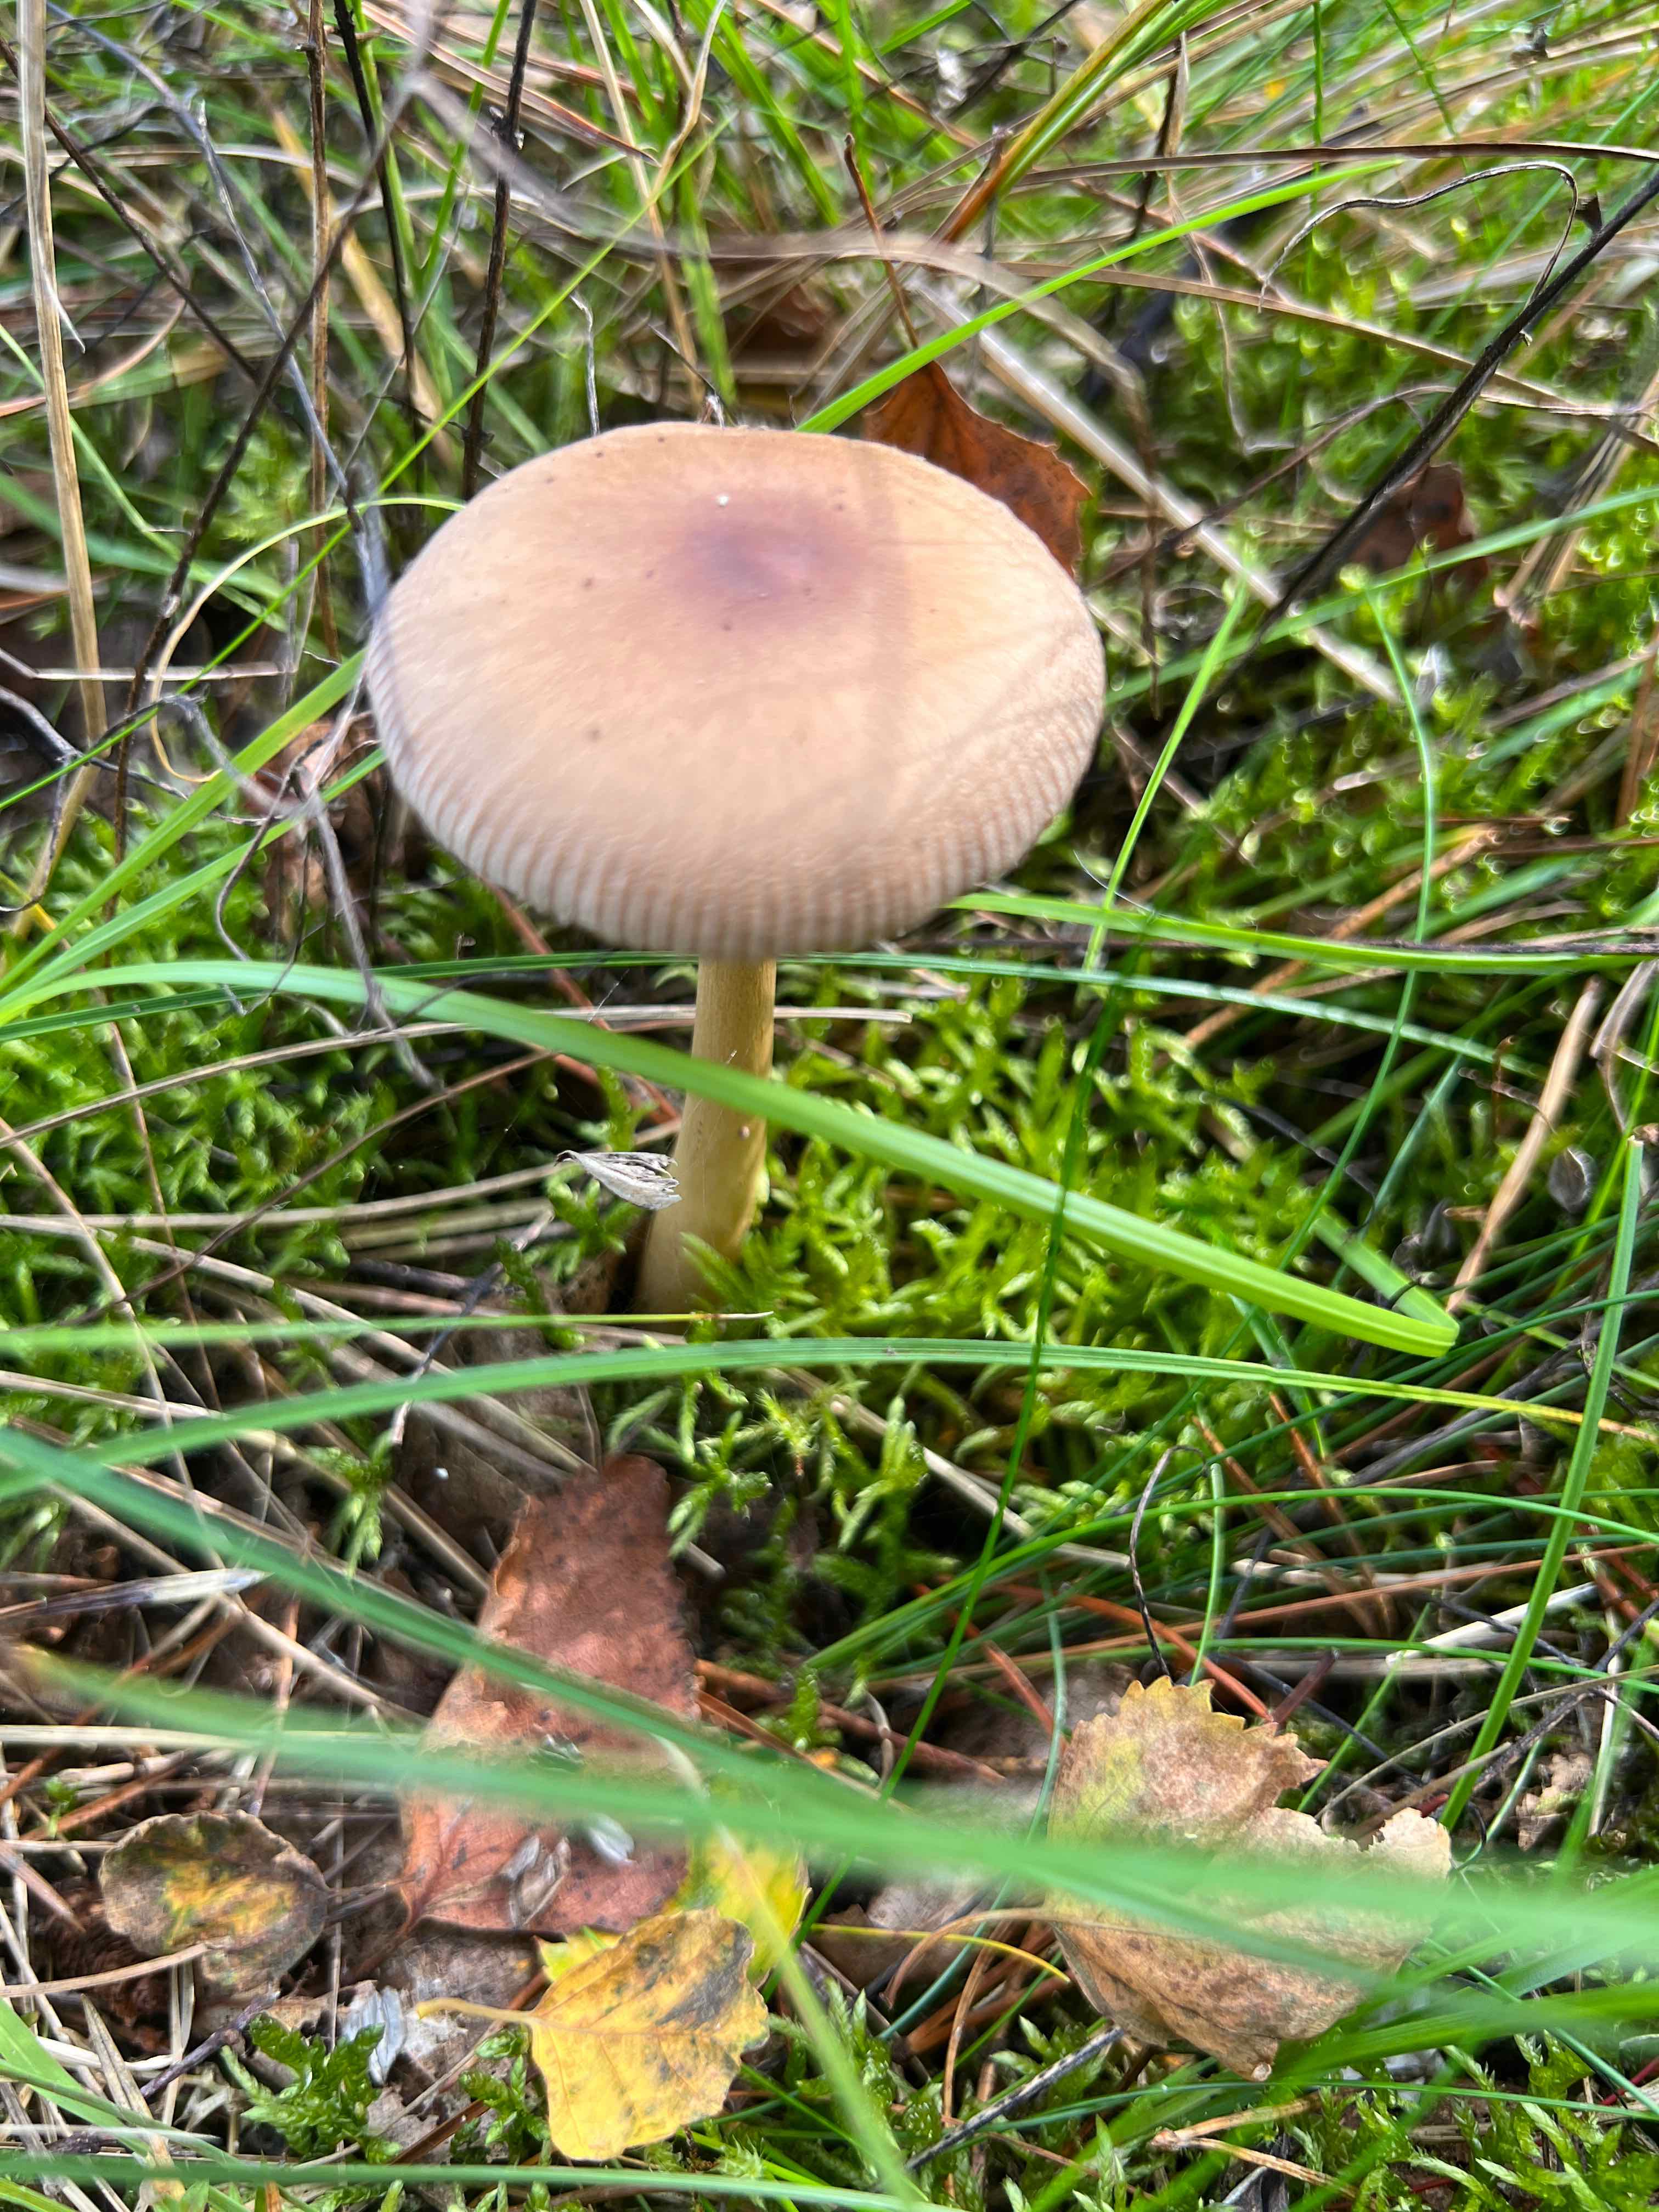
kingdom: Fungi
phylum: Basidiomycota
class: Agaricomycetes
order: Agaricales
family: Amanitaceae
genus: Amanita
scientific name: Amanita fulva
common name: brun kam-fluesvamp
